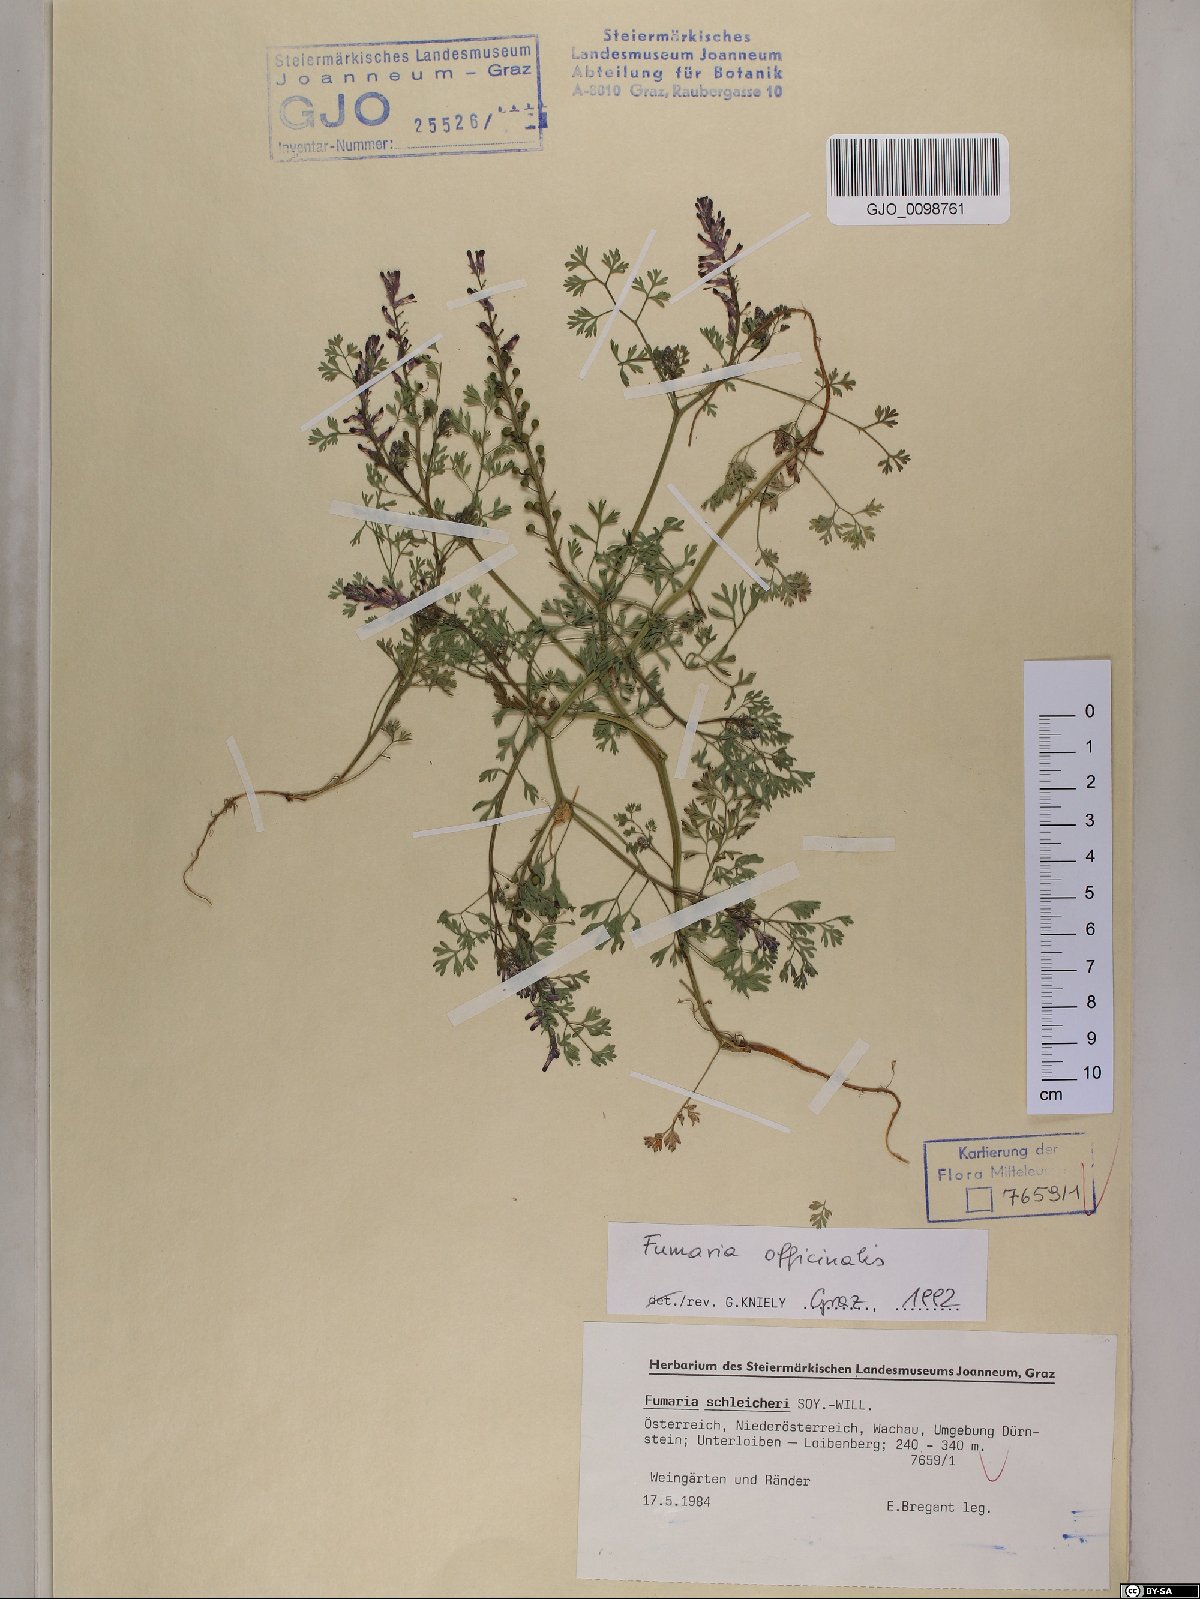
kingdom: Plantae
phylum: Tracheophyta
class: Magnoliopsida
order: Ranunculales
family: Papaveraceae
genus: Fumaria
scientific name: Fumaria officinalis
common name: Common fumitory
